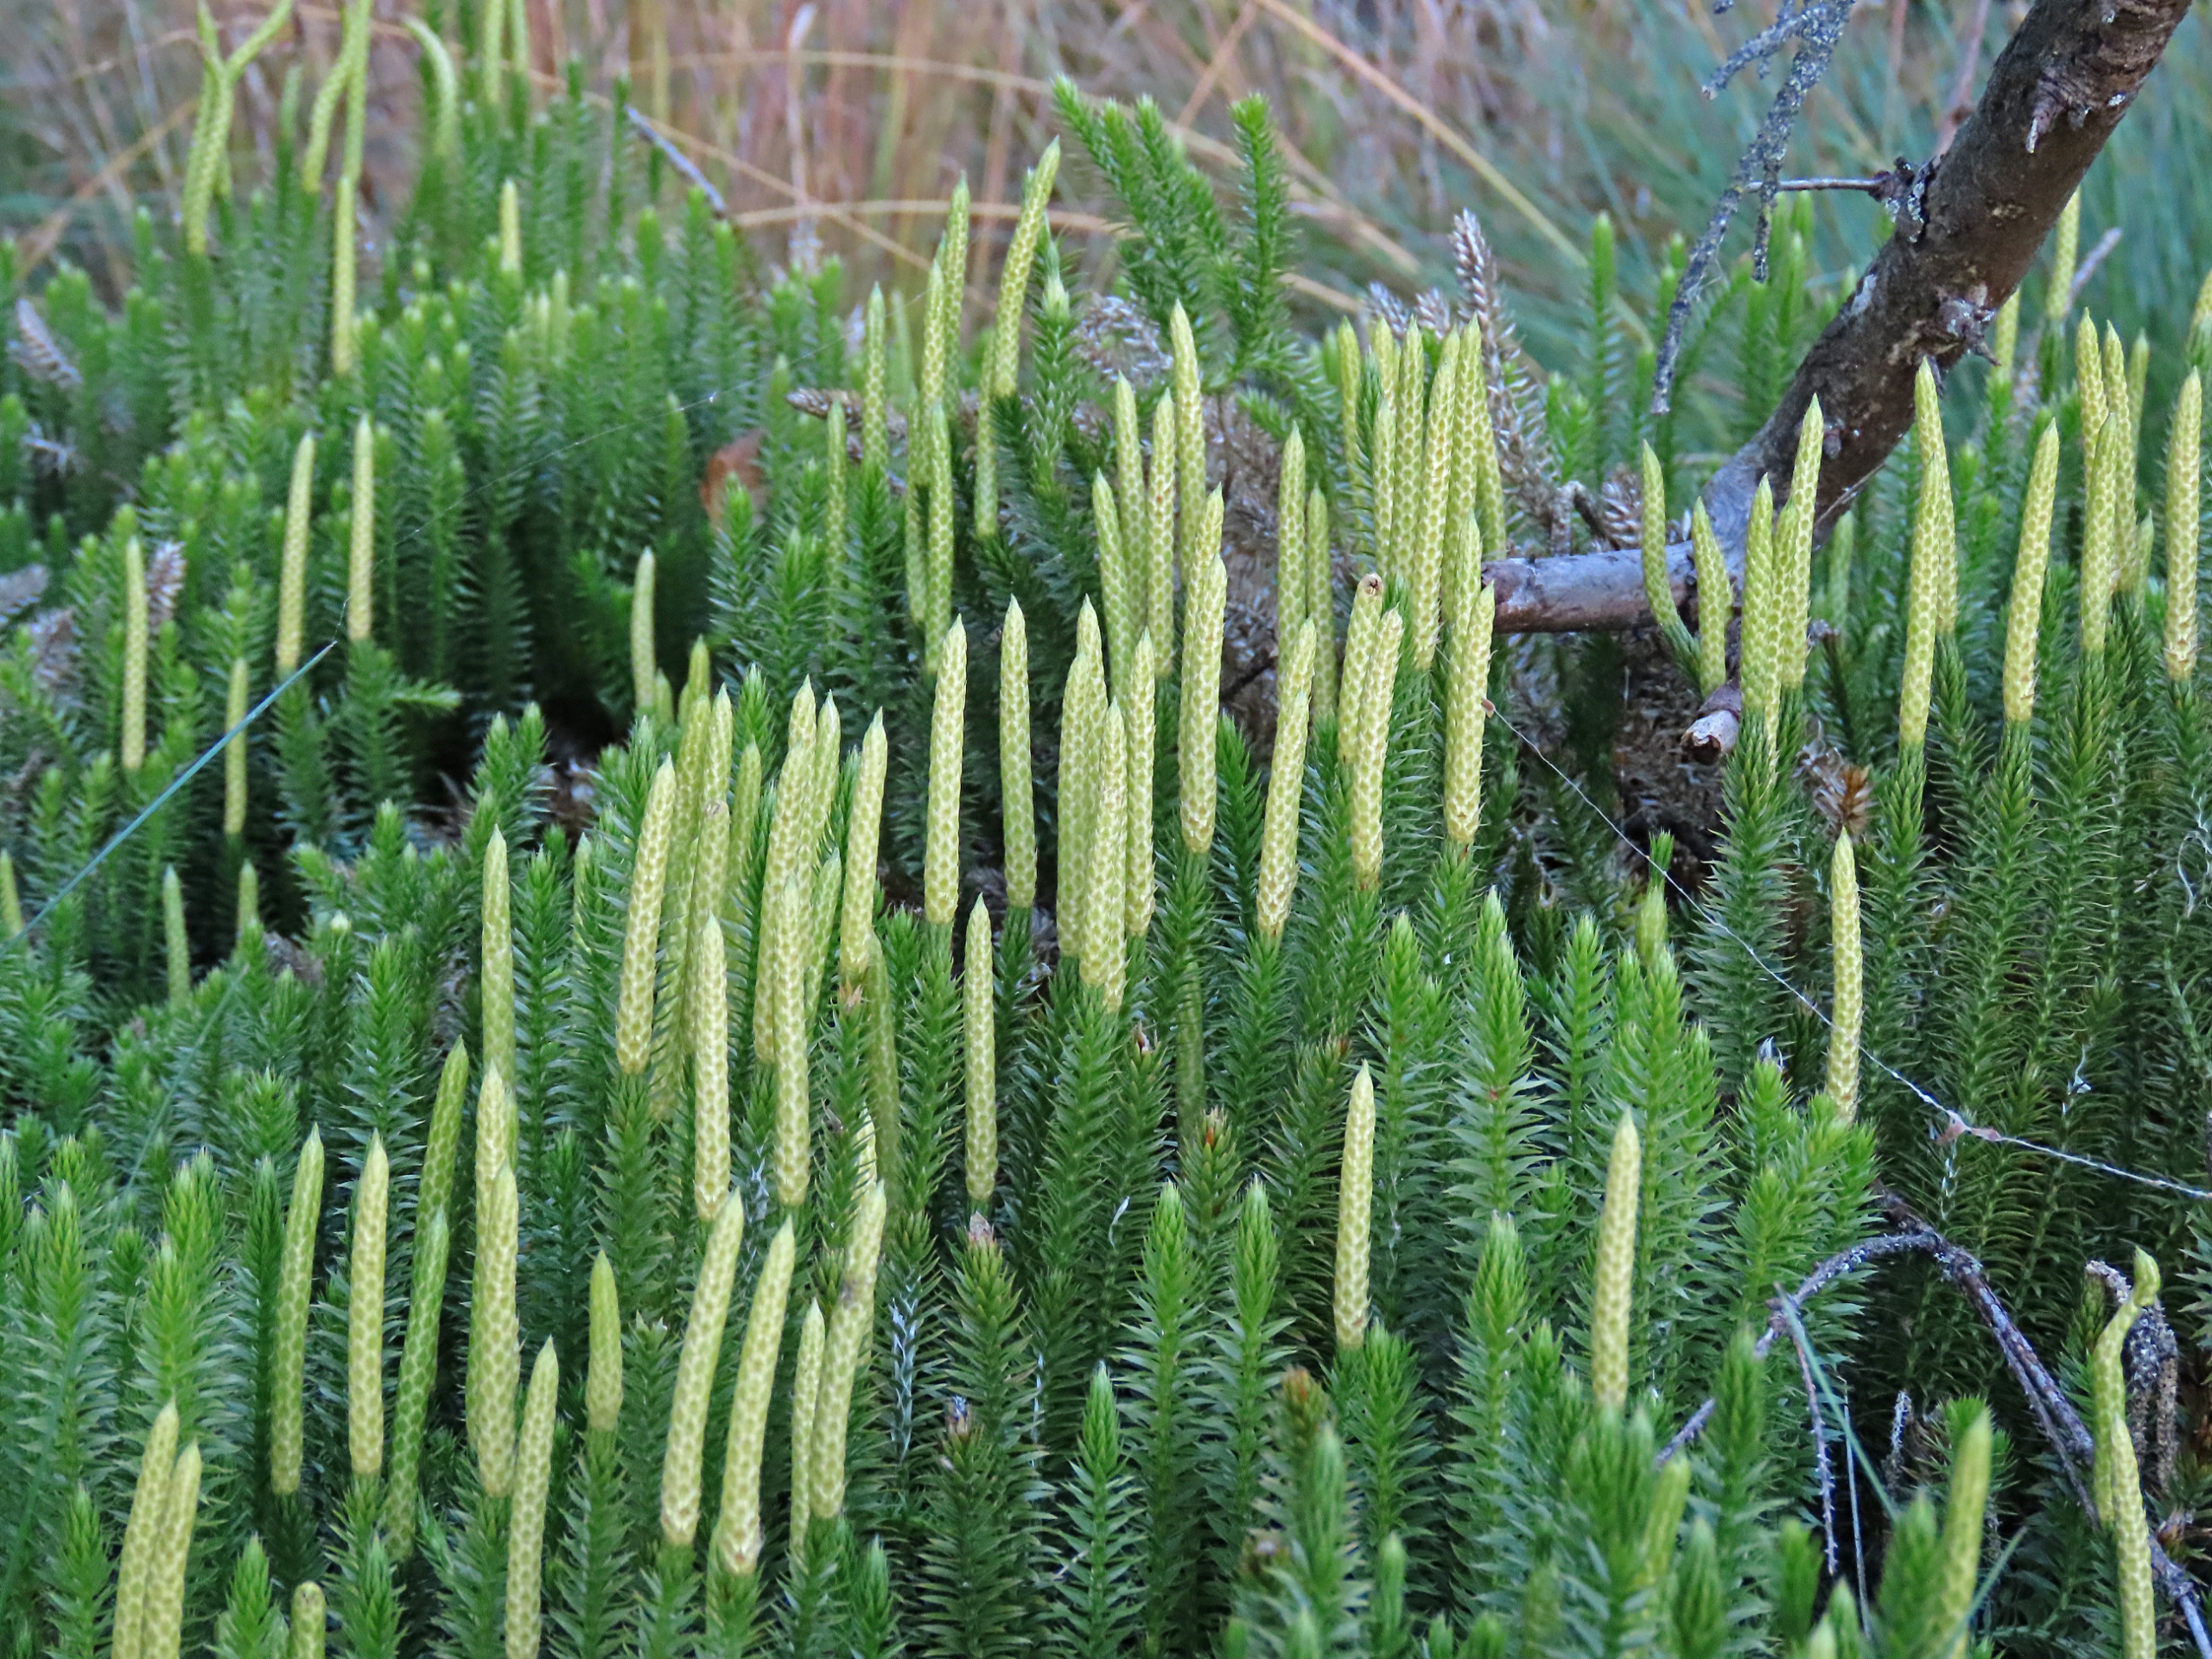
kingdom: Plantae
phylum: Tracheophyta
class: Lycopodiopsida
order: Lycopodiales
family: Lycopodiaceae
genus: Spinulum
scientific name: Spinulum annotinum
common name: Femradet ulvefod
